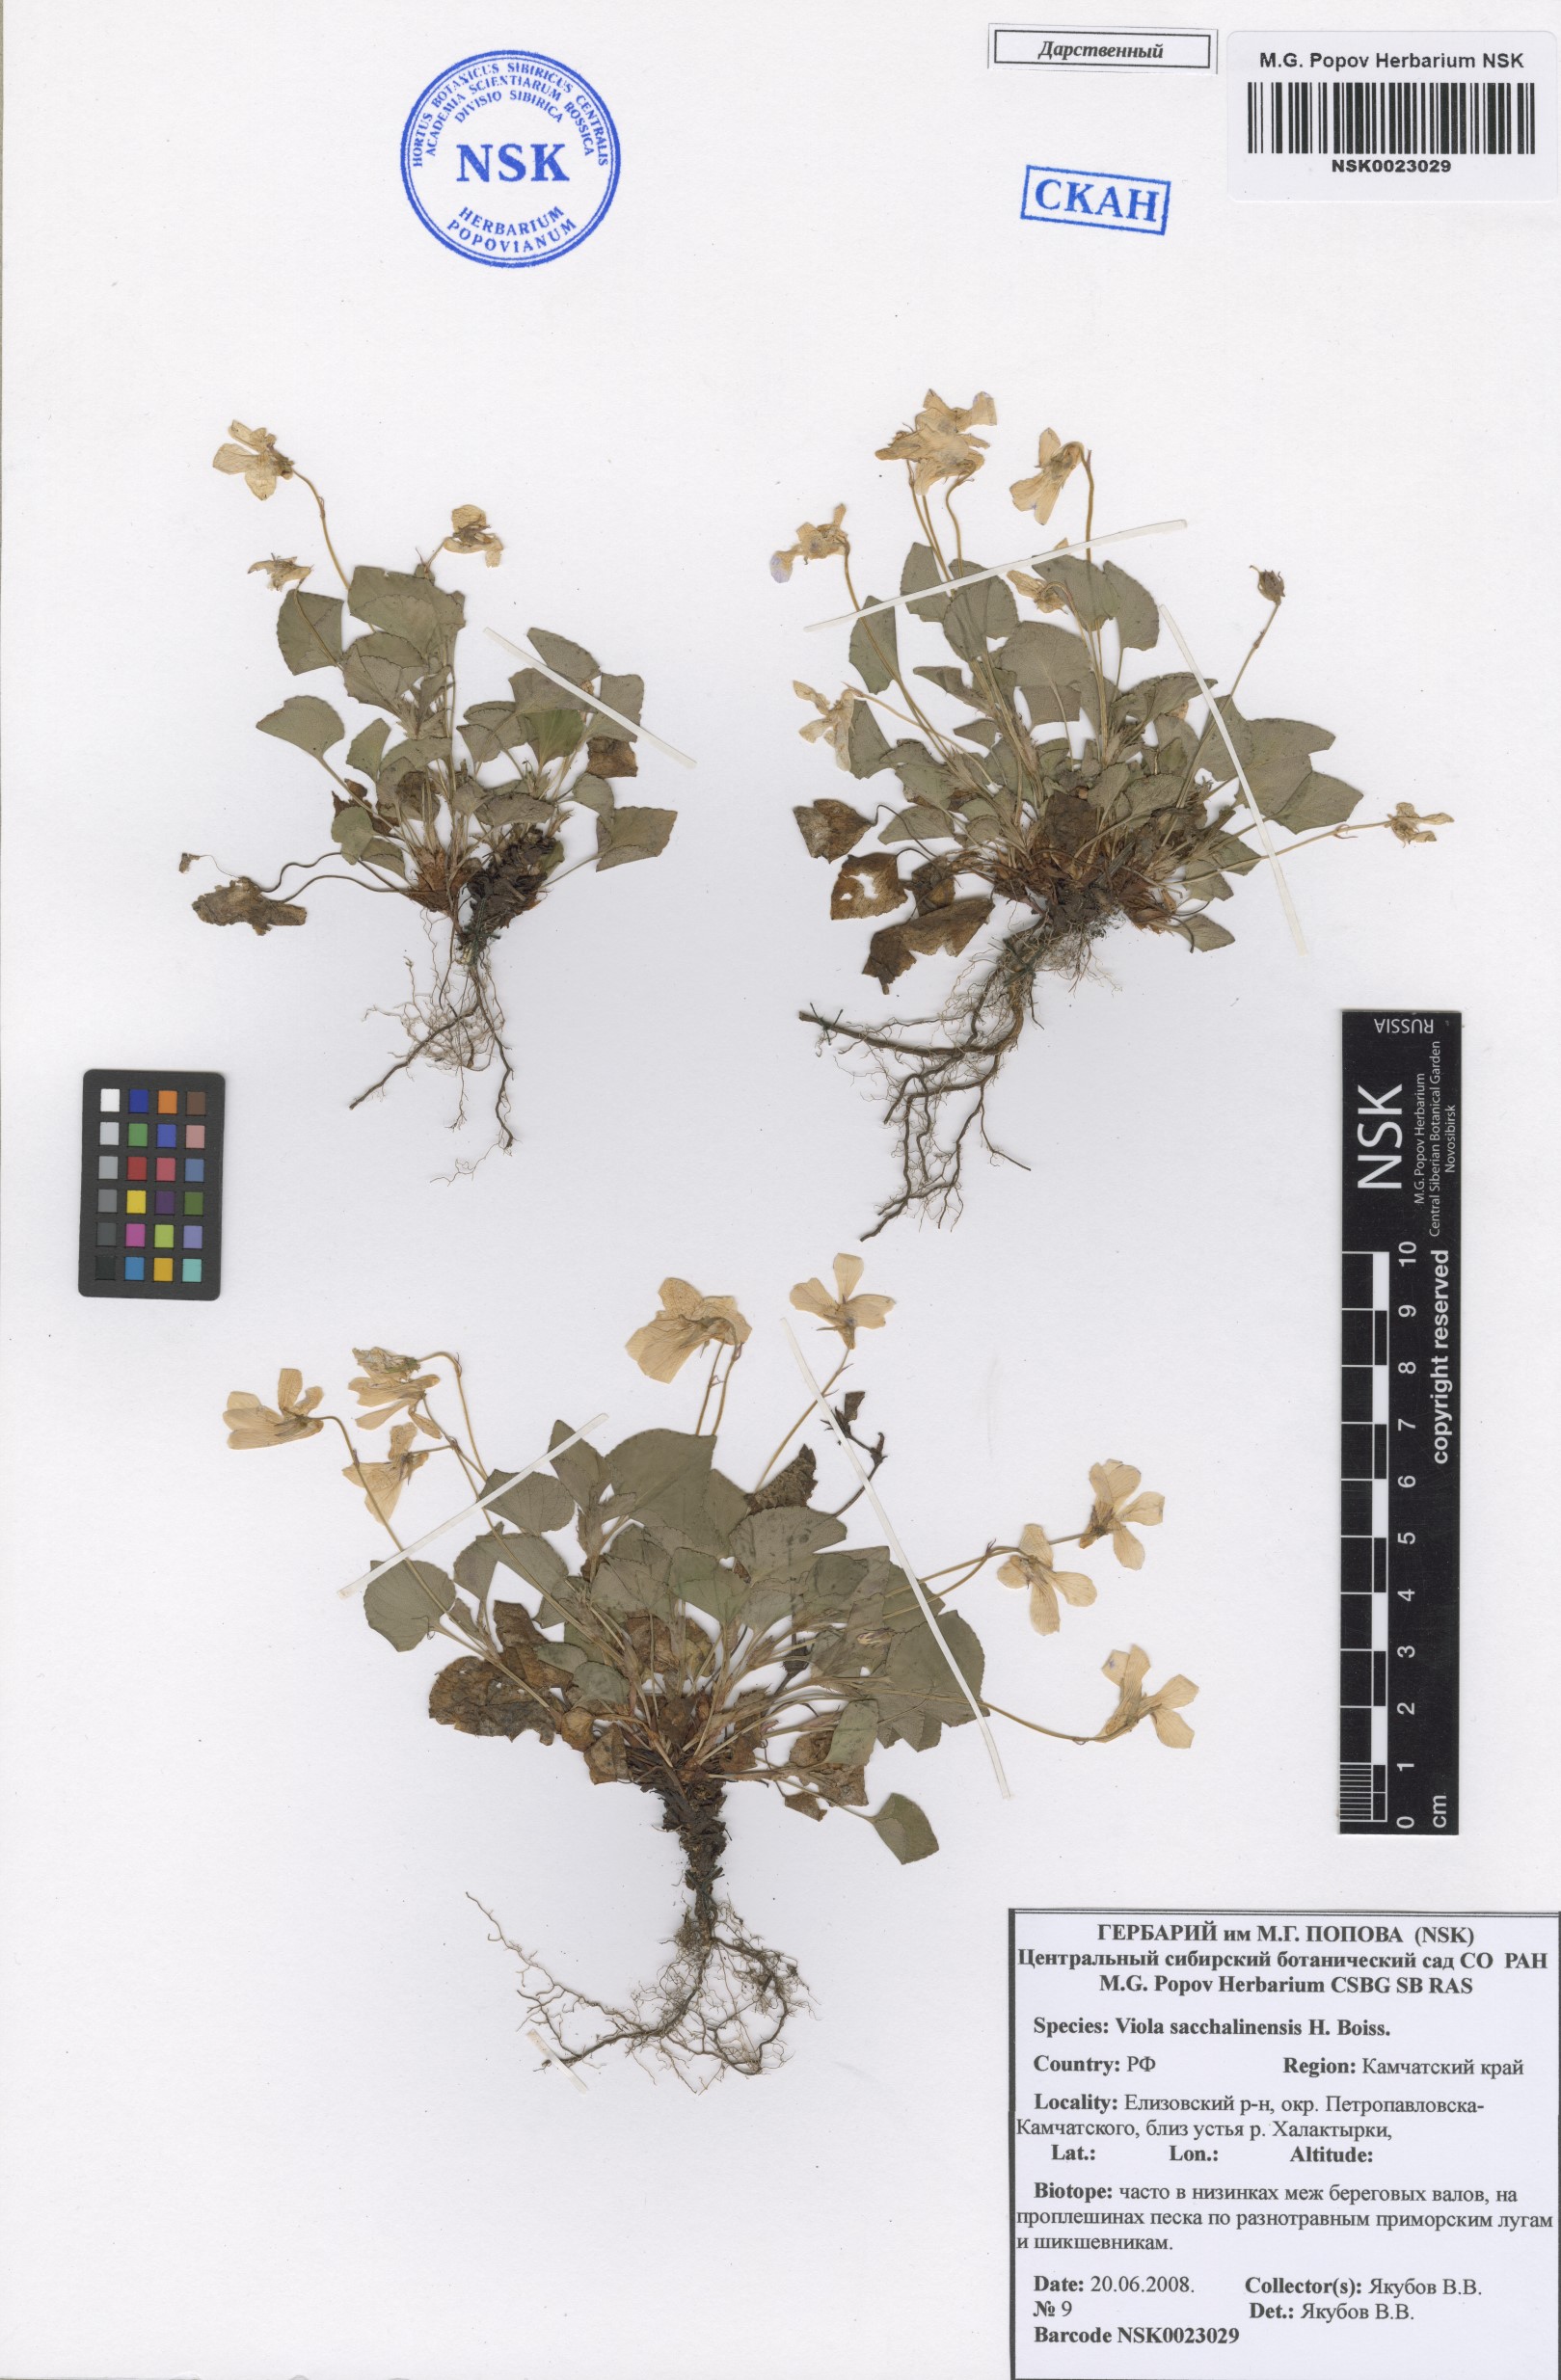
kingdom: Plantae
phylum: Tracheophyta
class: Magnoliopsida
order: Malpighiales
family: Violaceae
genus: Viola
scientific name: Viola sacchalinensis
